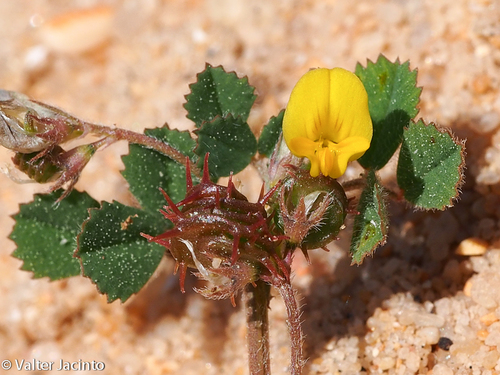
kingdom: Plantae
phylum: Tracheophyta
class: Magnoliopsida
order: Fabales
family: Fabaceae
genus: Medicago
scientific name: Medicago littoralis
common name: Shore medick
